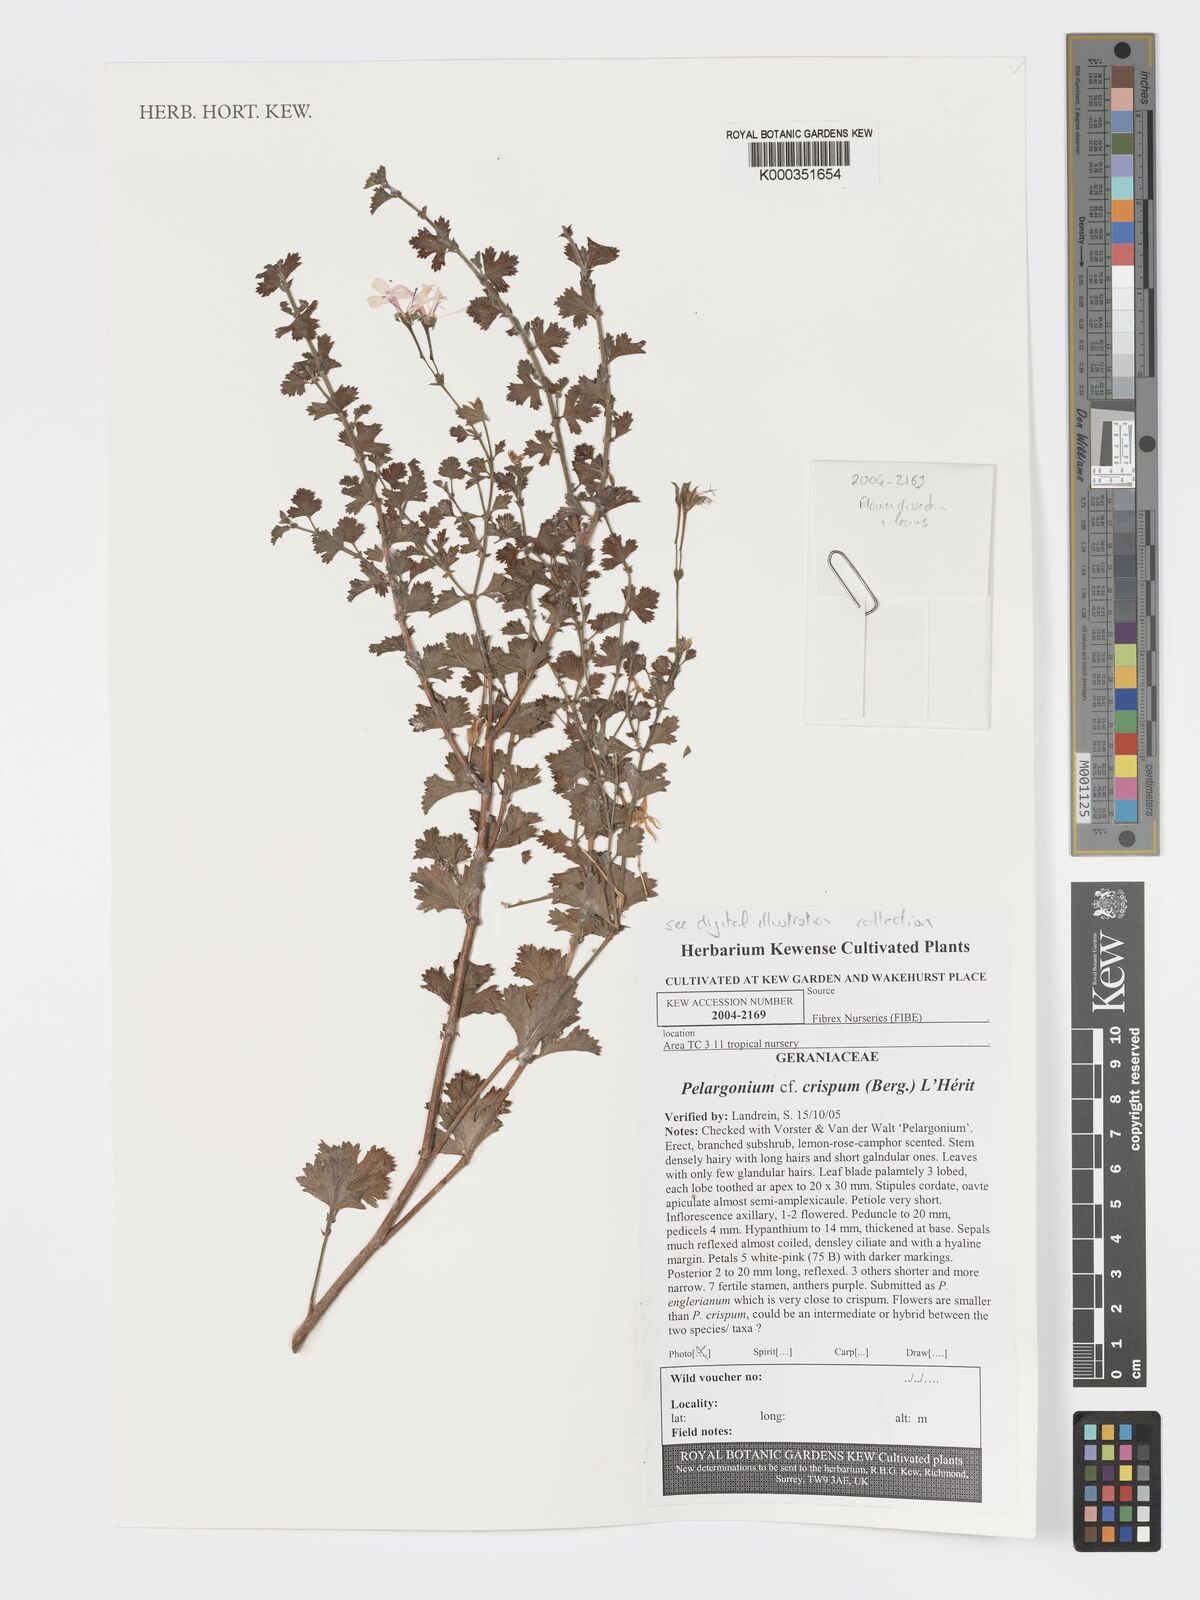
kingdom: Plantae
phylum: Tracheophyta
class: Magnoliopsida
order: Geraniales
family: Geraniaceae
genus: Pelargonium
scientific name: Pelargonium crispum
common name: Crisped-leaf pelargonium
